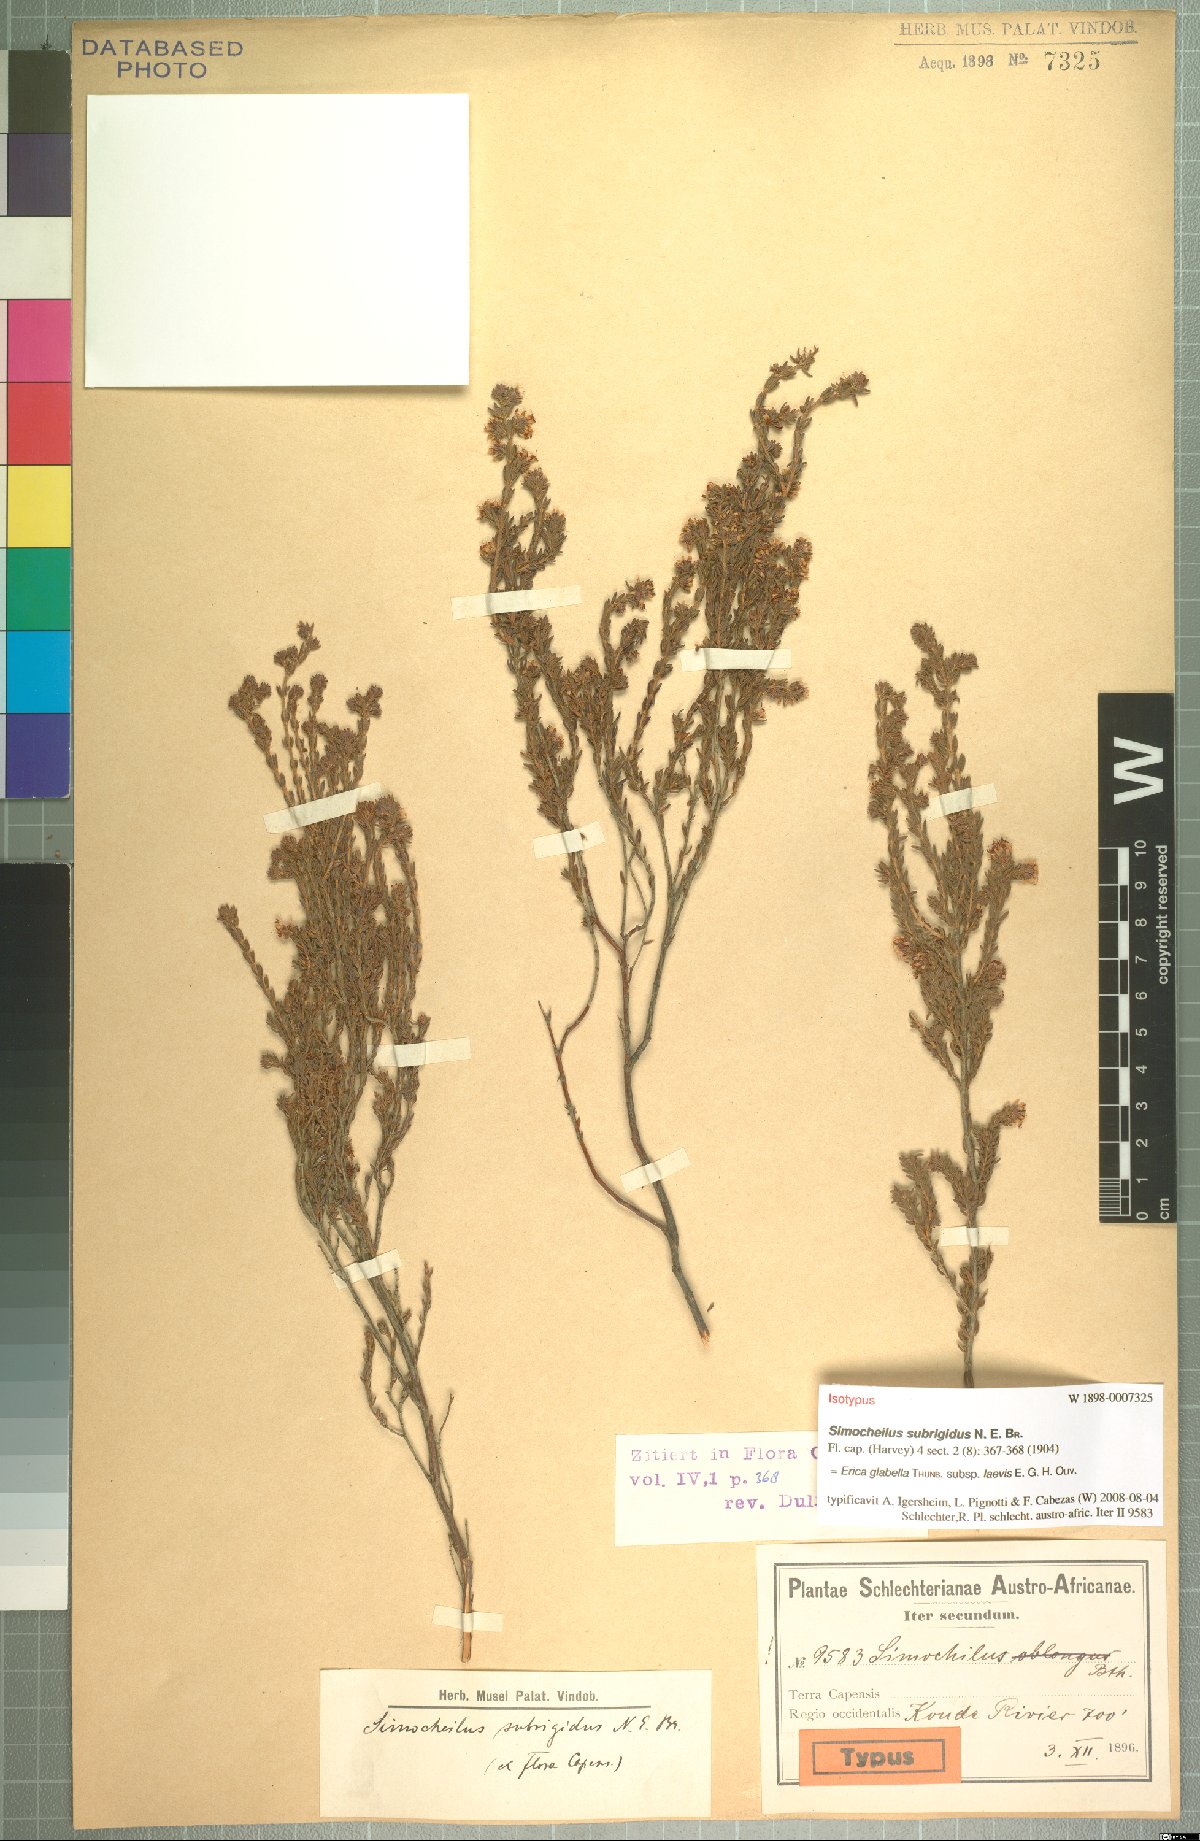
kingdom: Plantae
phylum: Tracheophyta
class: Magnoliopsida
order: Ericales
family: Ericaceae
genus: Erica
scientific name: Erica glabella
